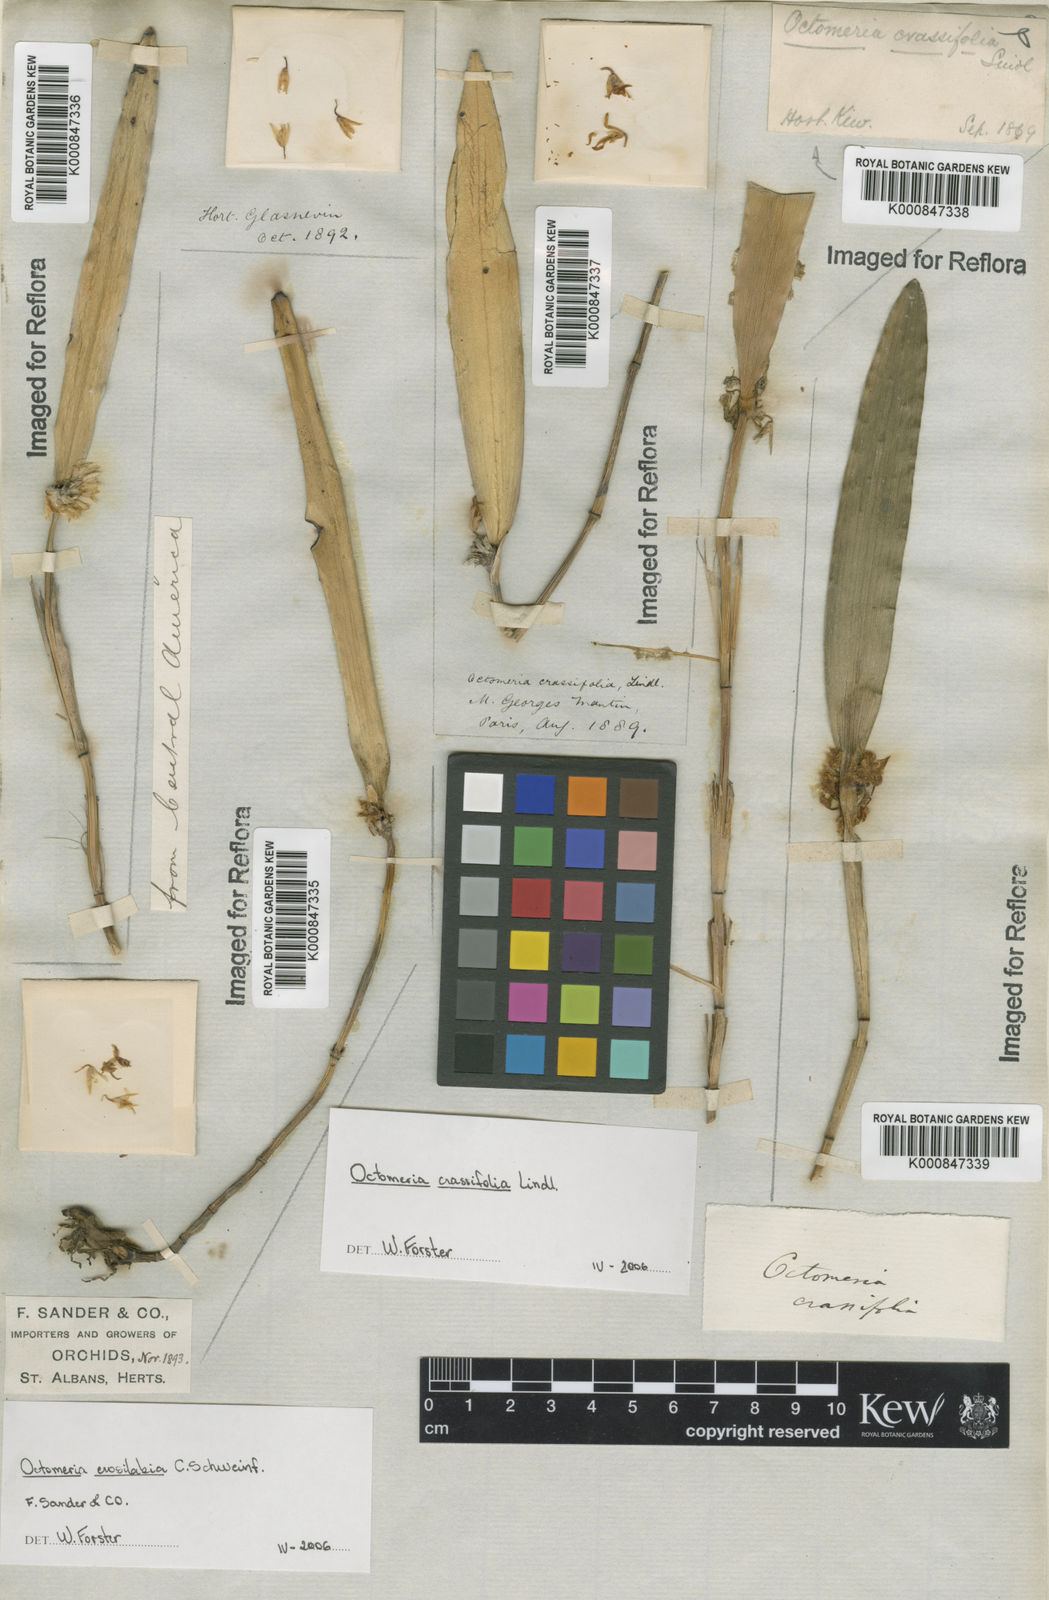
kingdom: Plantae
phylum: Tracheophyta
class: Liliopsida
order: Asparagales
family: Orchidaceae
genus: Octomeria
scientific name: Octomeria
